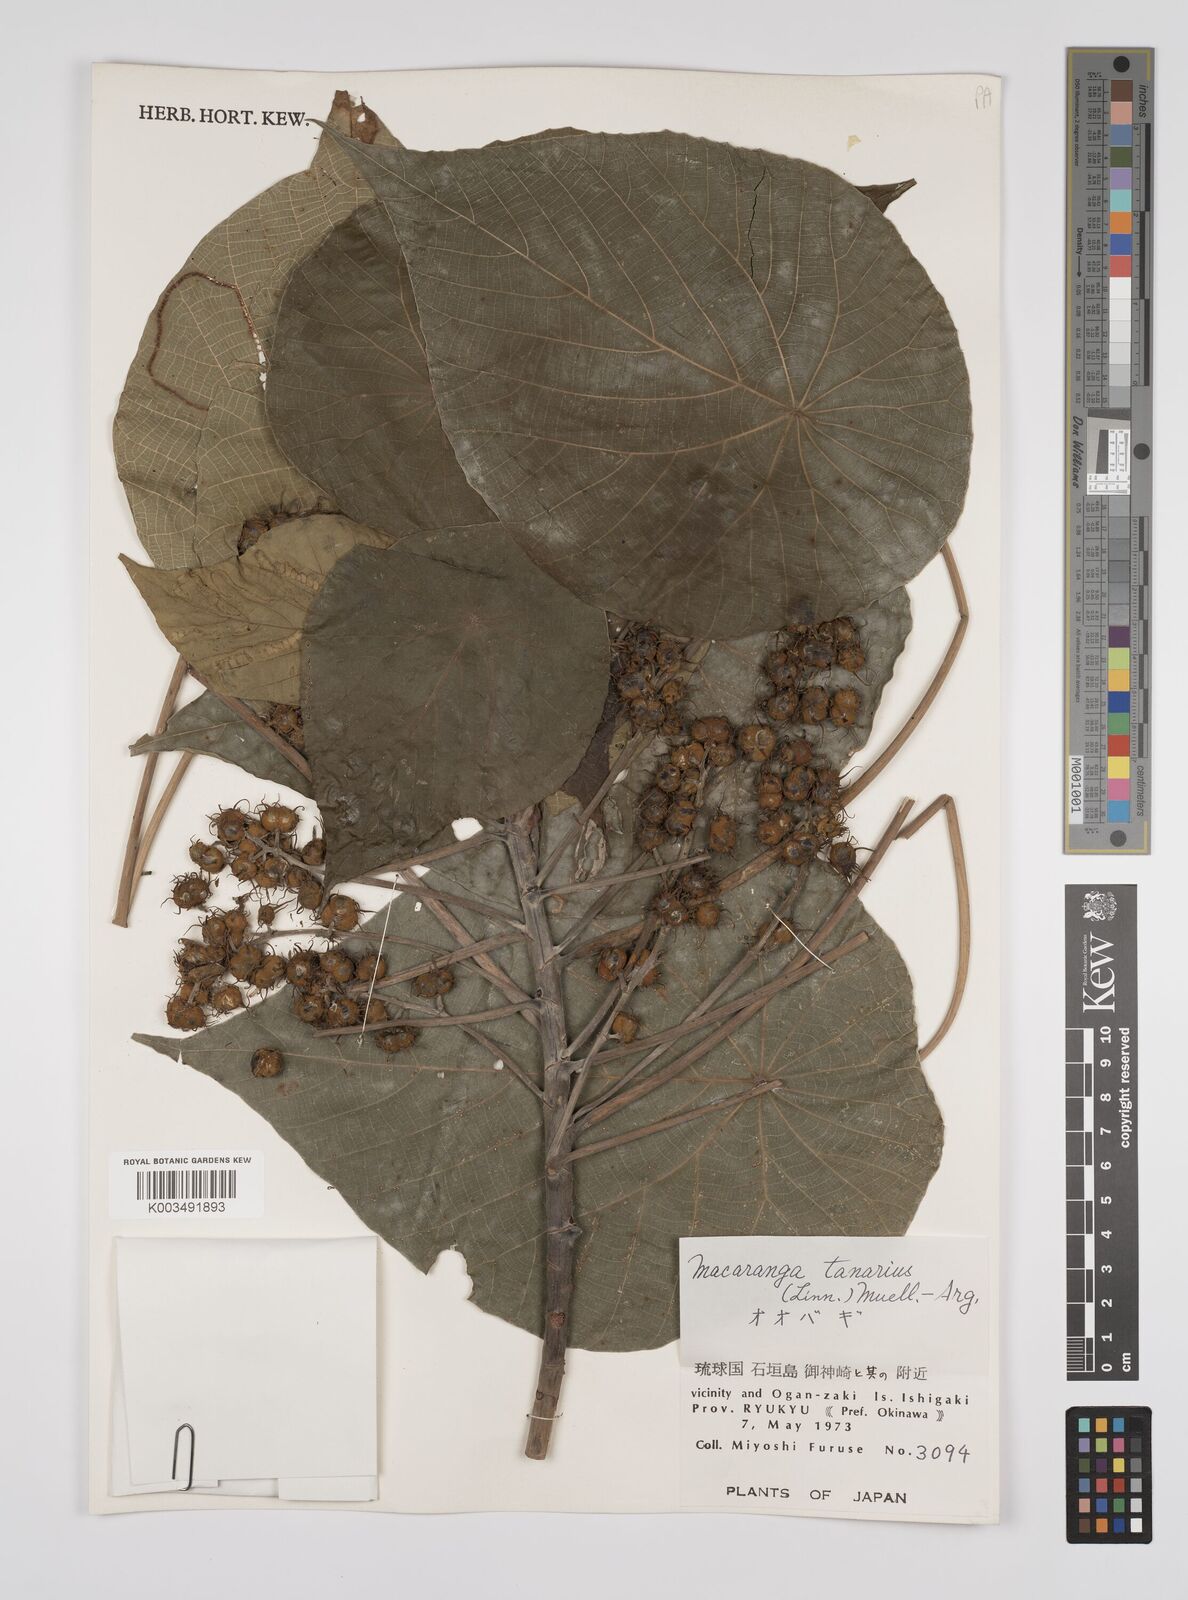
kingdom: Plantae
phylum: Tracheophyta
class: Magnoliopsida
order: Malpighiales
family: Euphorbiaceae
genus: Macaranga
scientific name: Macaranga tanarius
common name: Parasol leaf tree
